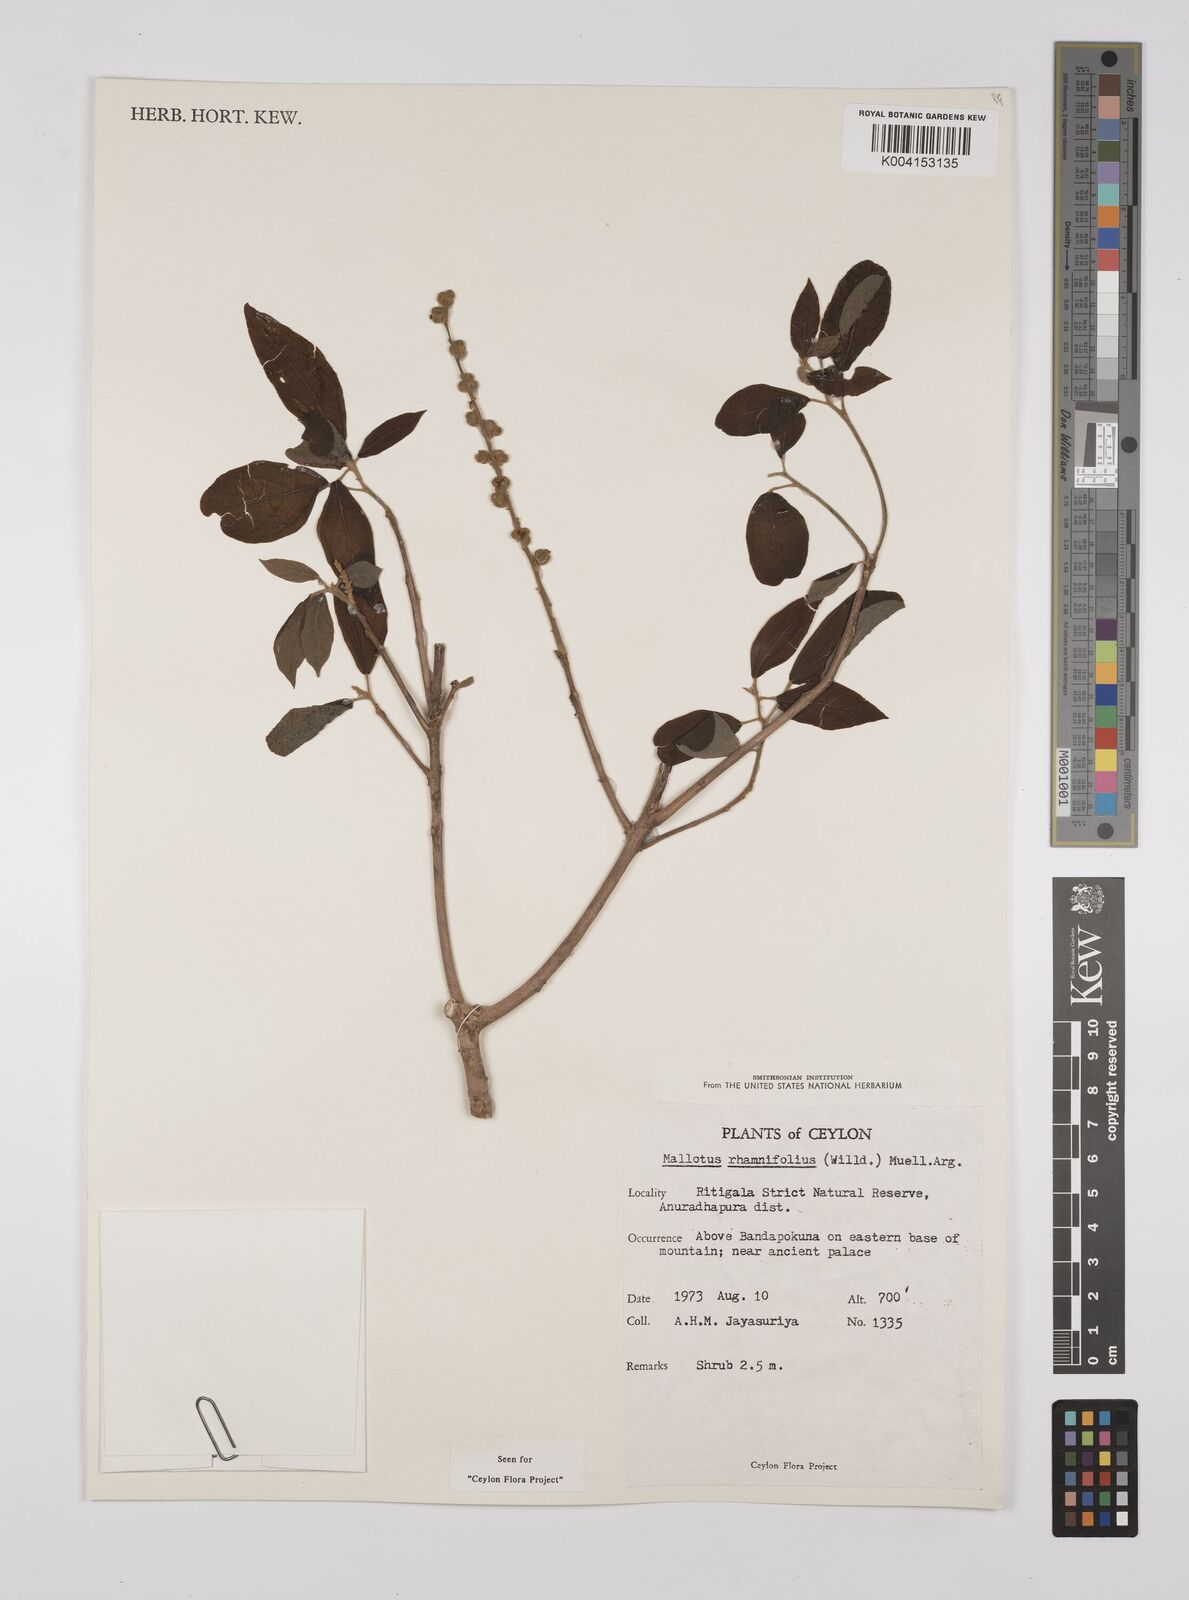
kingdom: Plantae
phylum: Tracheophyta
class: Magnoliopsida
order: Malpighiales
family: Euphorbiaceae
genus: Mallotus
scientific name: Mallotus rhamnifolius
